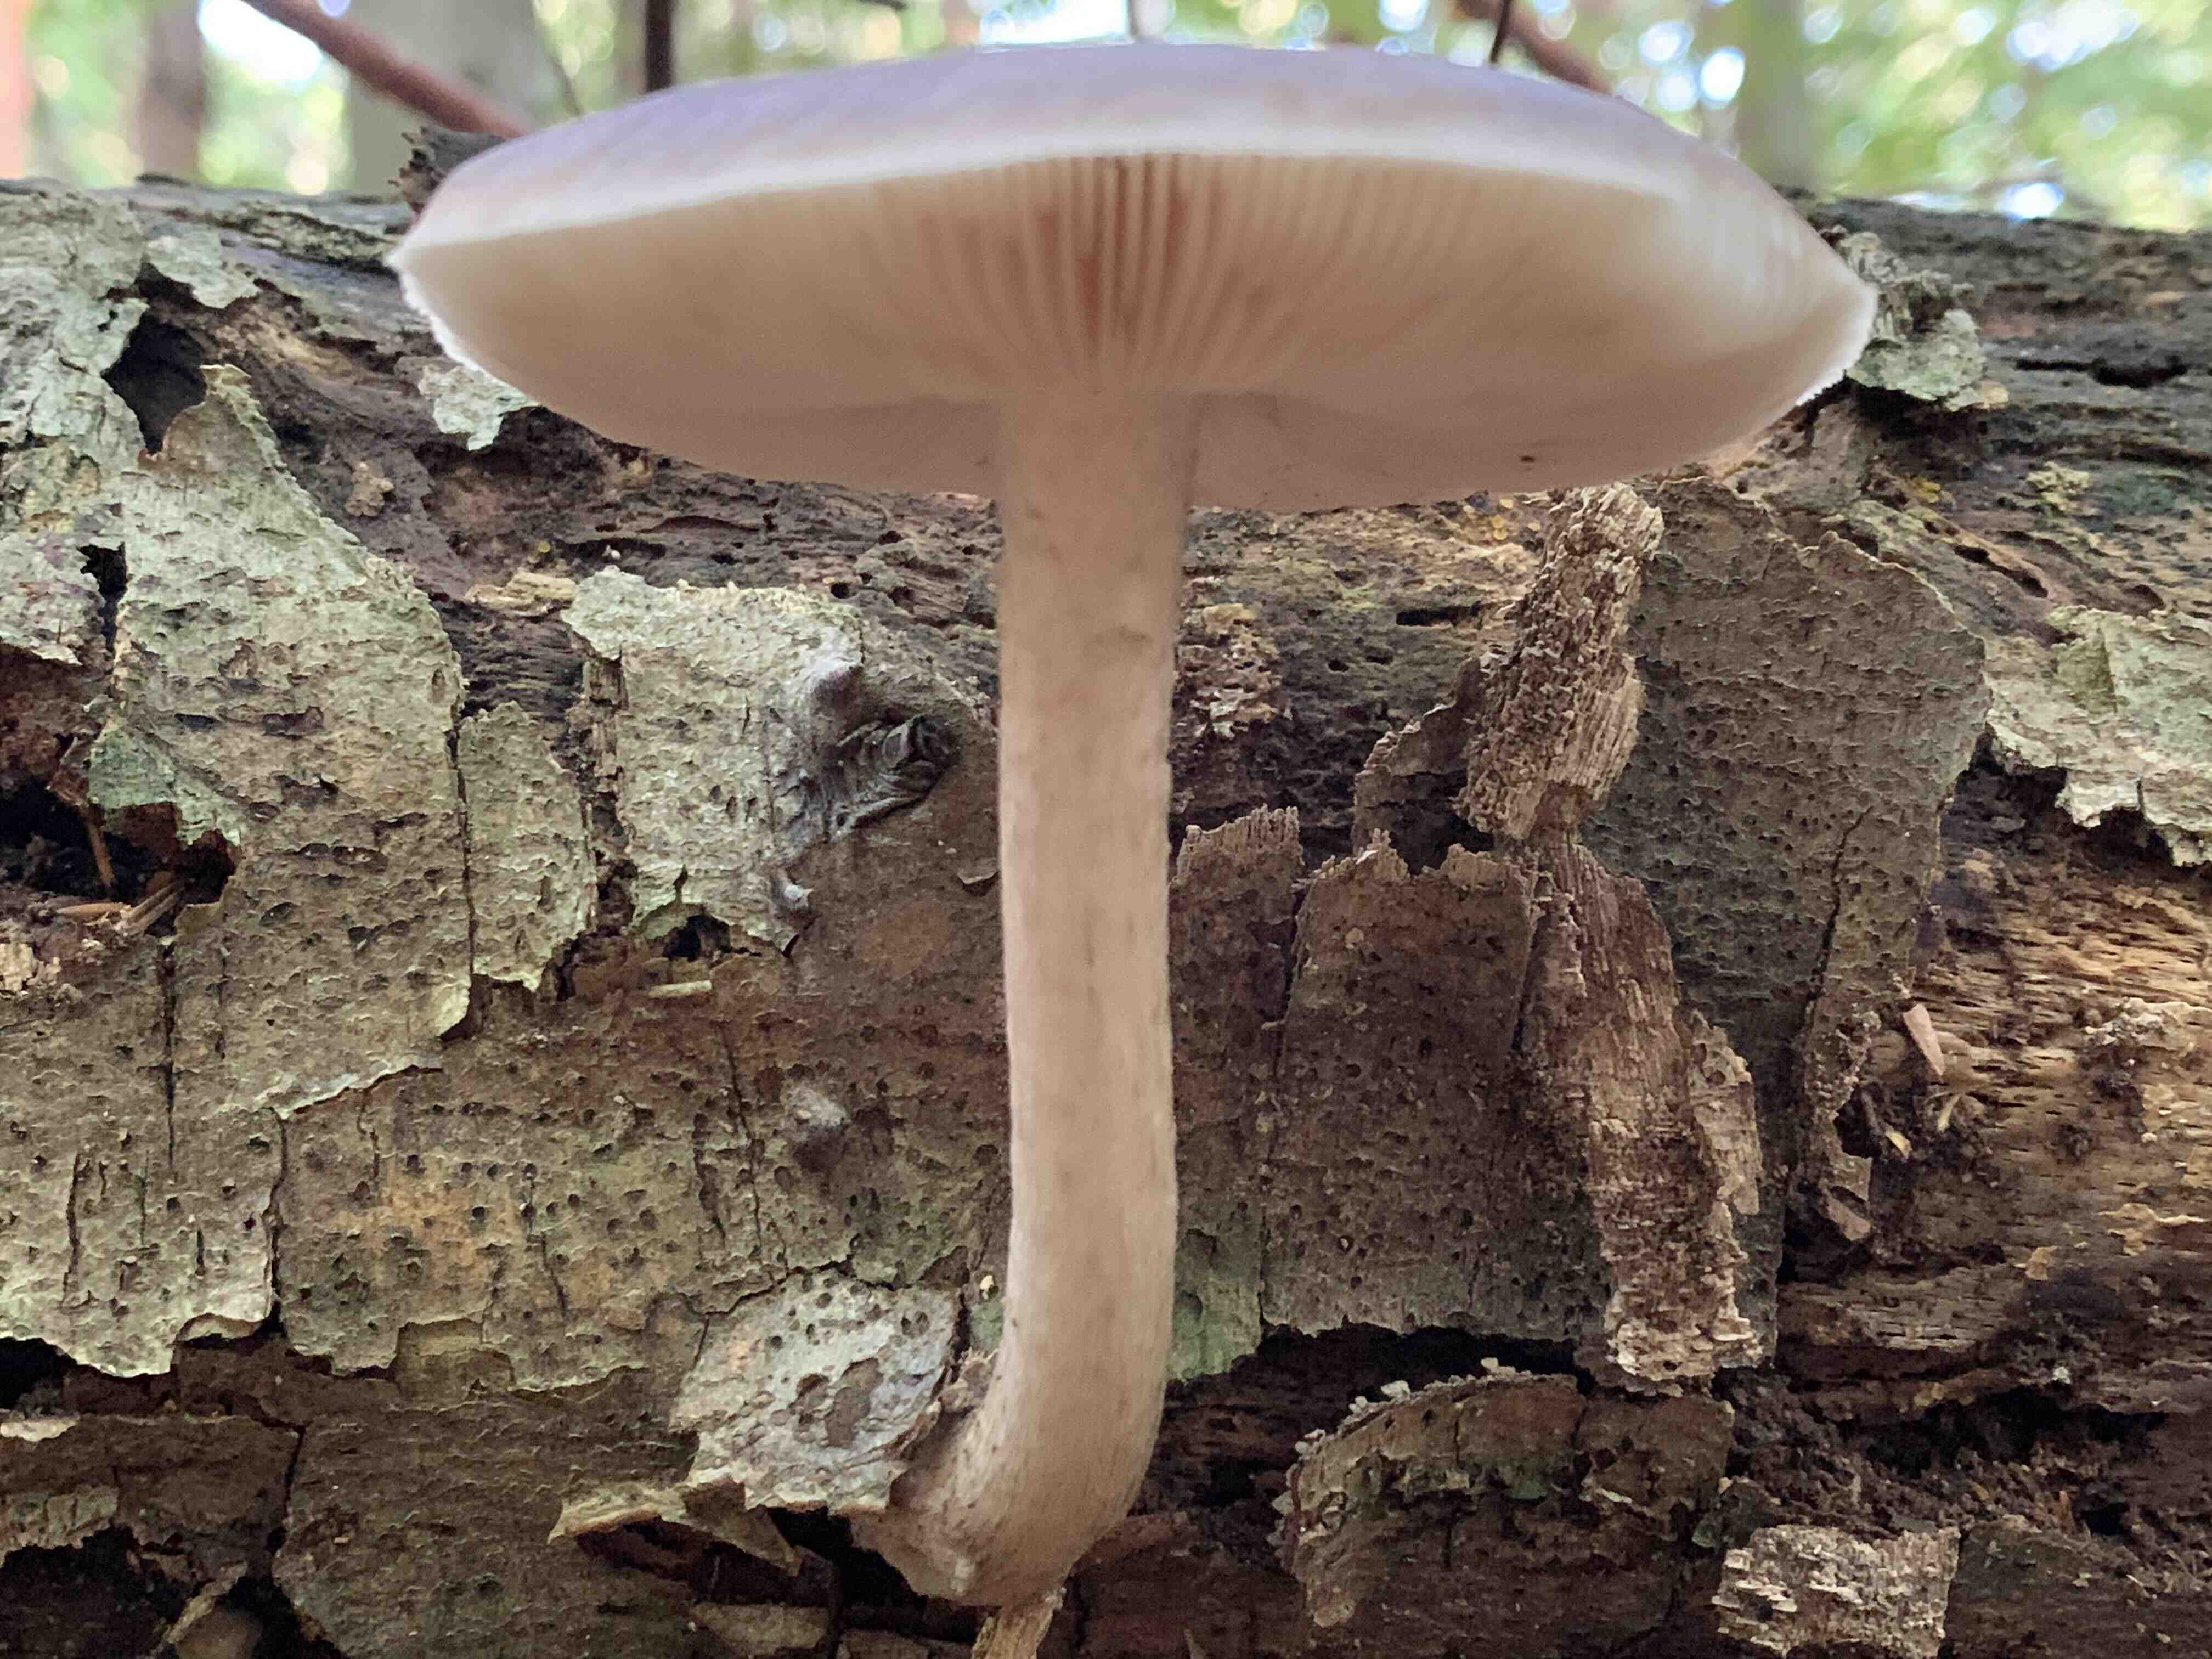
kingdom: Fungi
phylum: Basidiomycota
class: Agaricomycetes
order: Agaricales
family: Pluteaceae
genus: Pluteus
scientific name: Pluteus cervinus
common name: sodfarvet skærmhat
